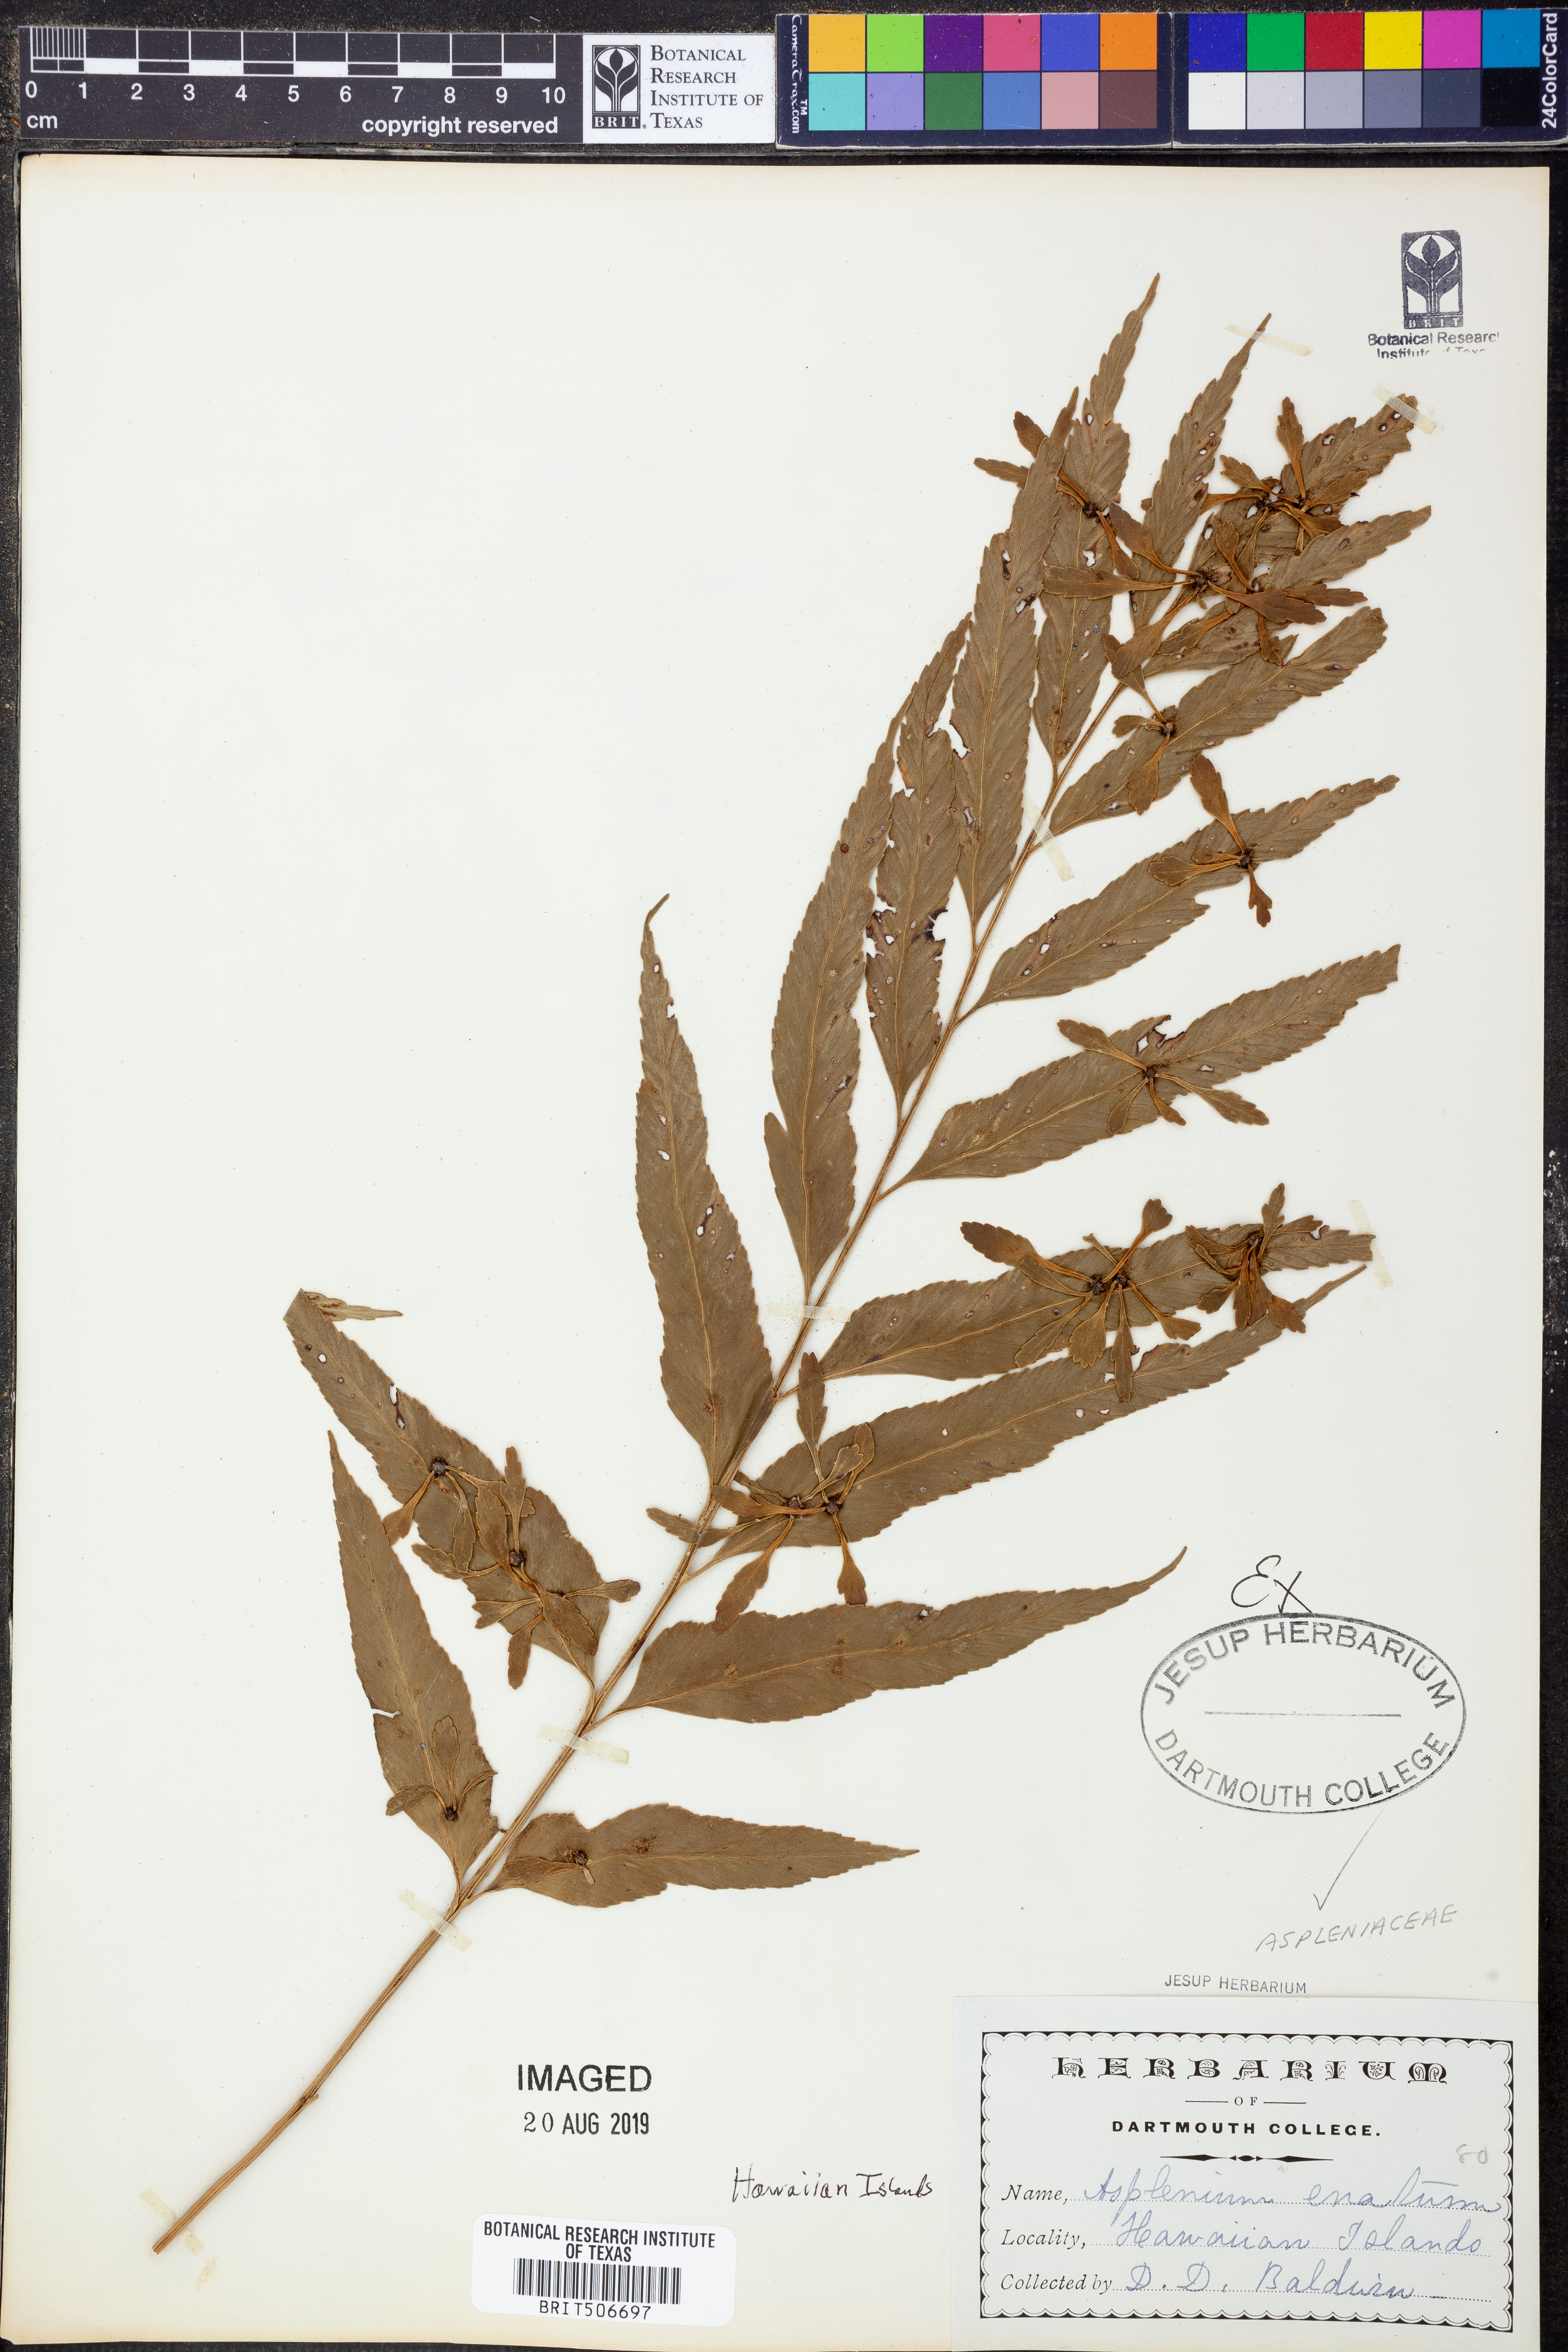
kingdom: Plantae
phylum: Tracheophyta
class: Polypodiopsida
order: Polypodiales
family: Aspleniaceae
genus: Asplenium
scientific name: Asplenium kaulfussii
